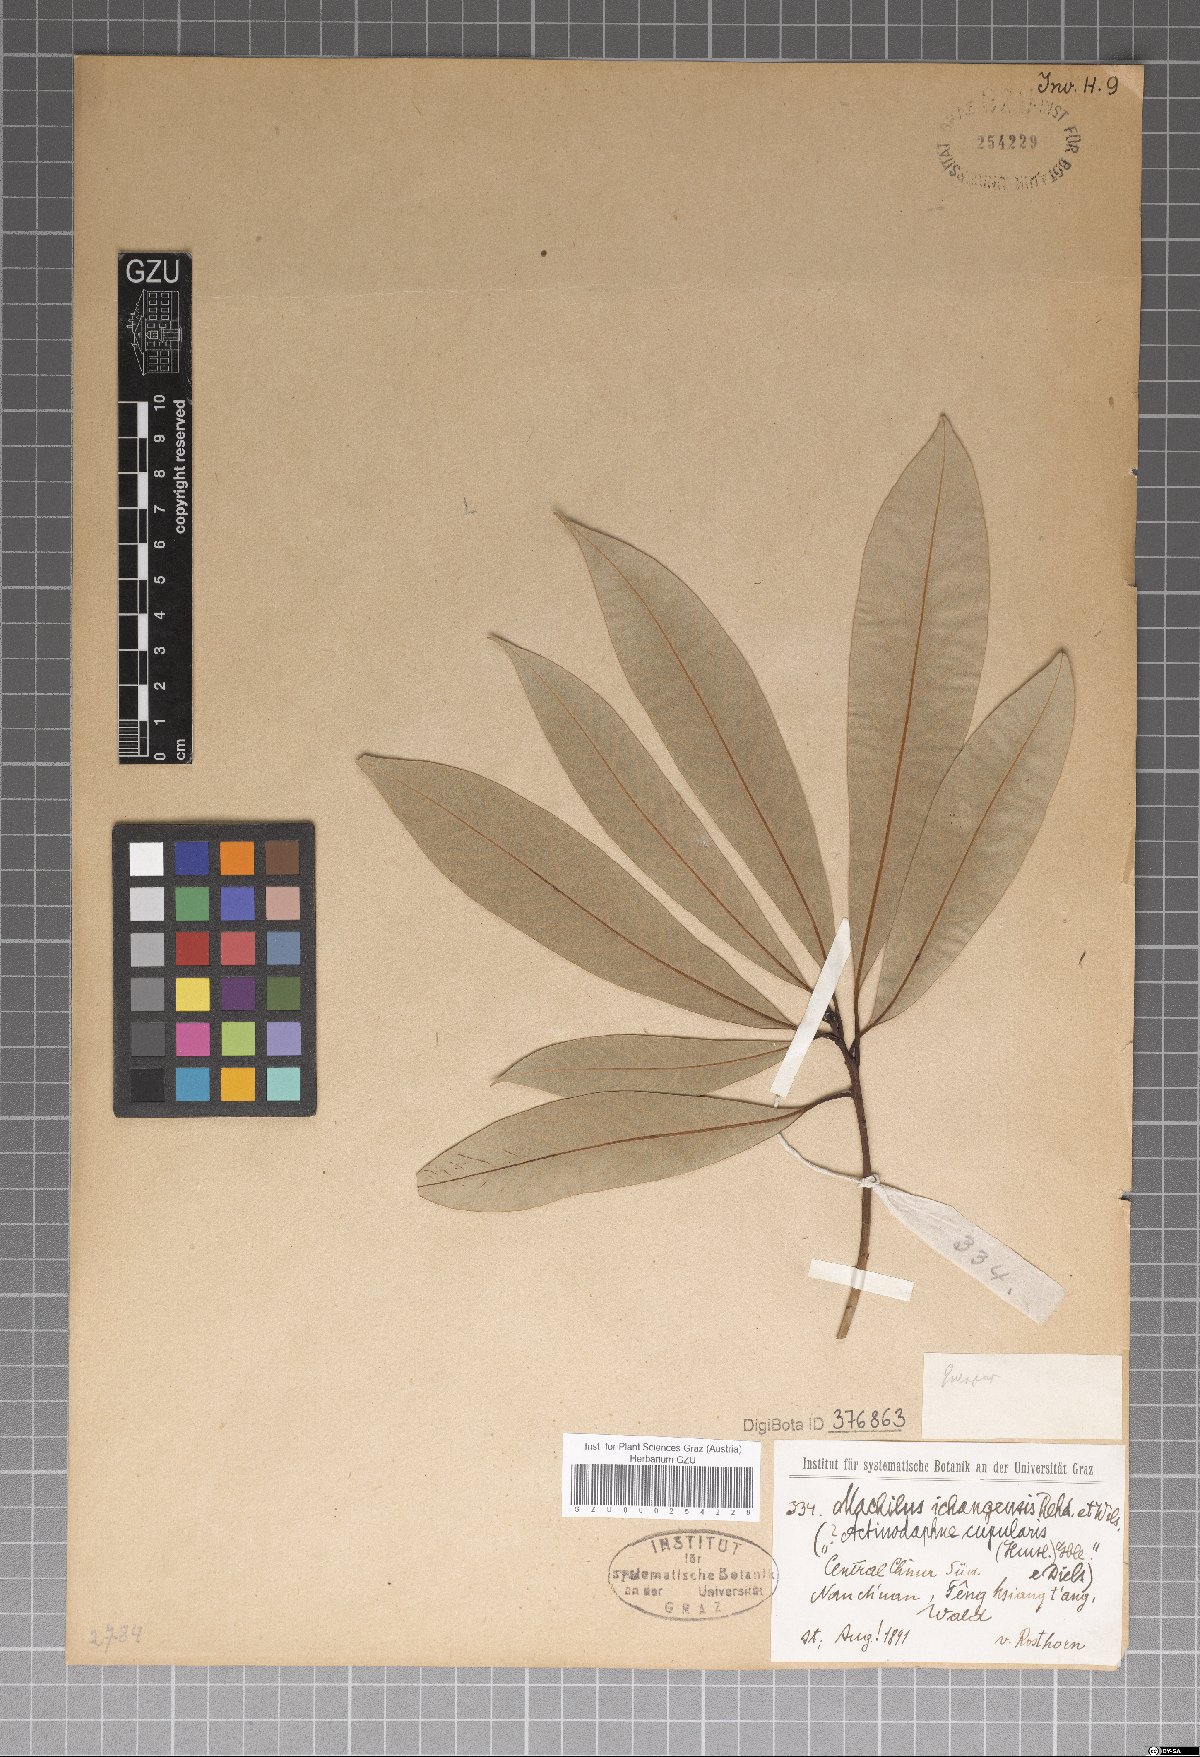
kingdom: Plantae
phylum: Tracheophyta
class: Magnoliopsida
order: Laurales
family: Lauraceae
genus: Machilus
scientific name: Machilus ichangensis
